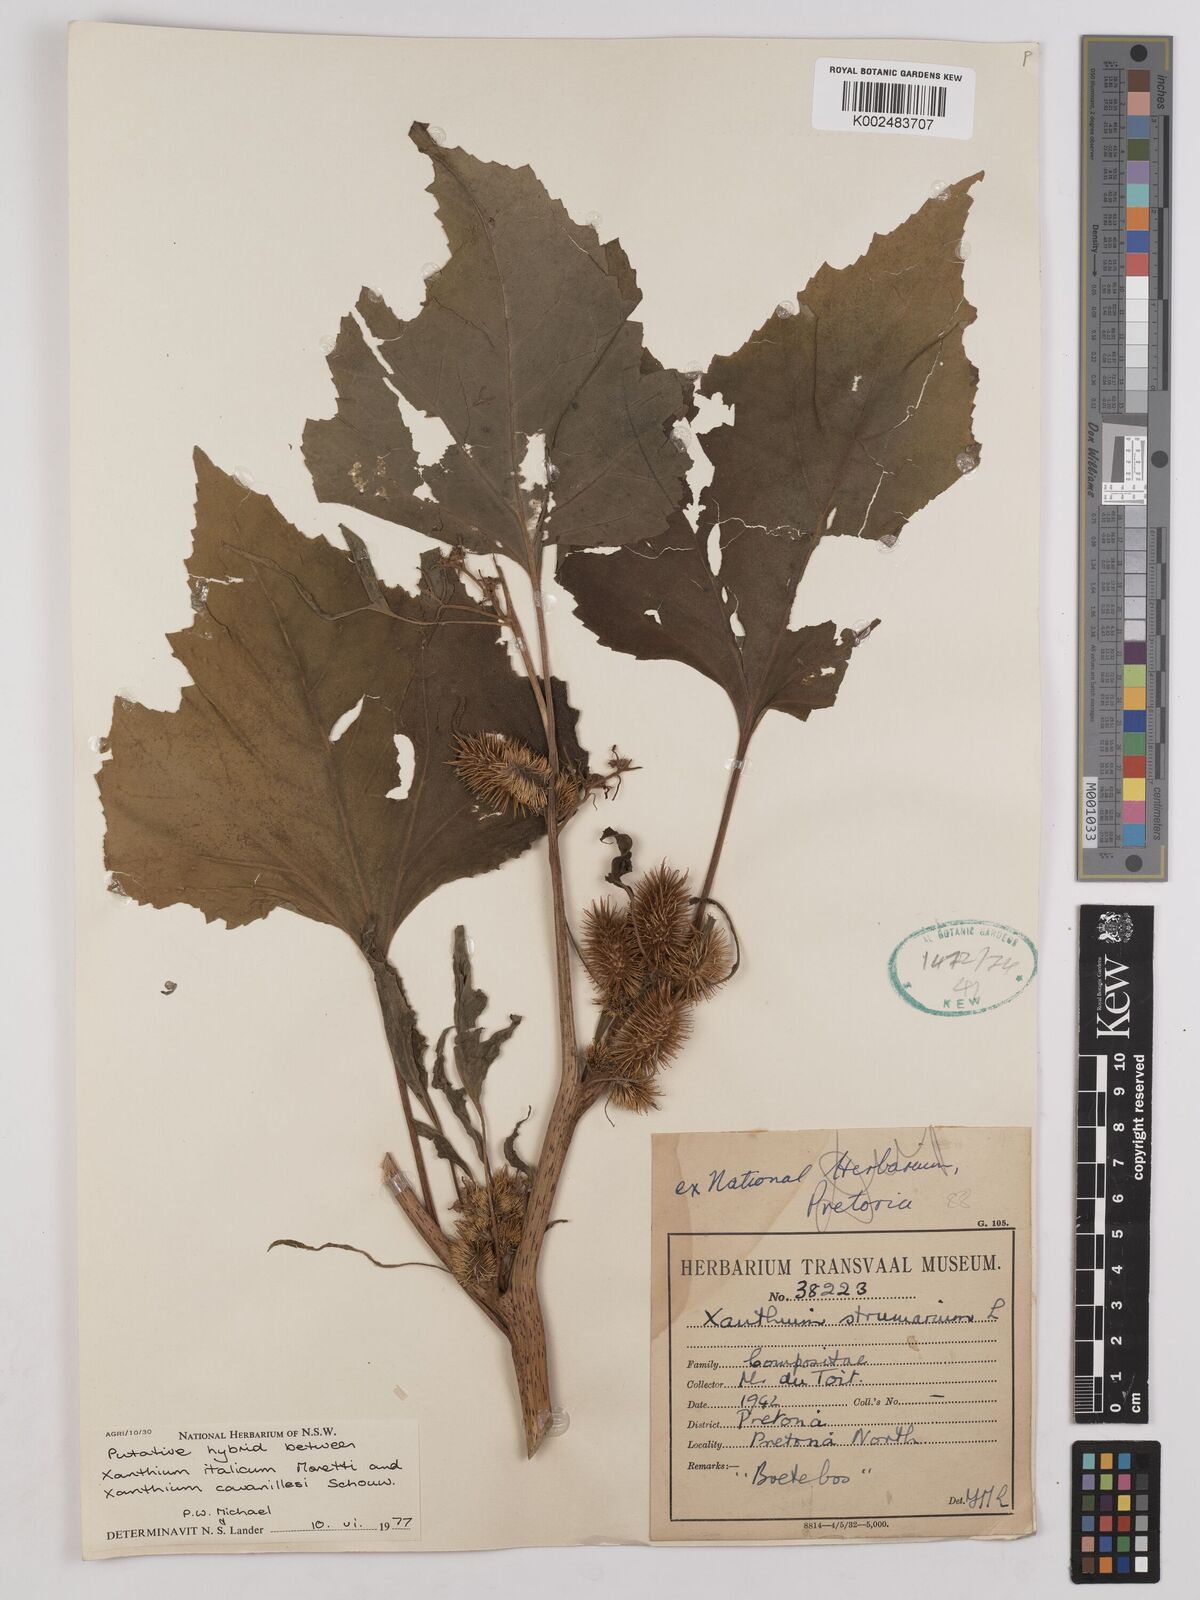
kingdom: Plantae
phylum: Tracheophyta
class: Magnoliopsida
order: Asterales
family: Asteraceae
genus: Xanthium
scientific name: Xanthium
